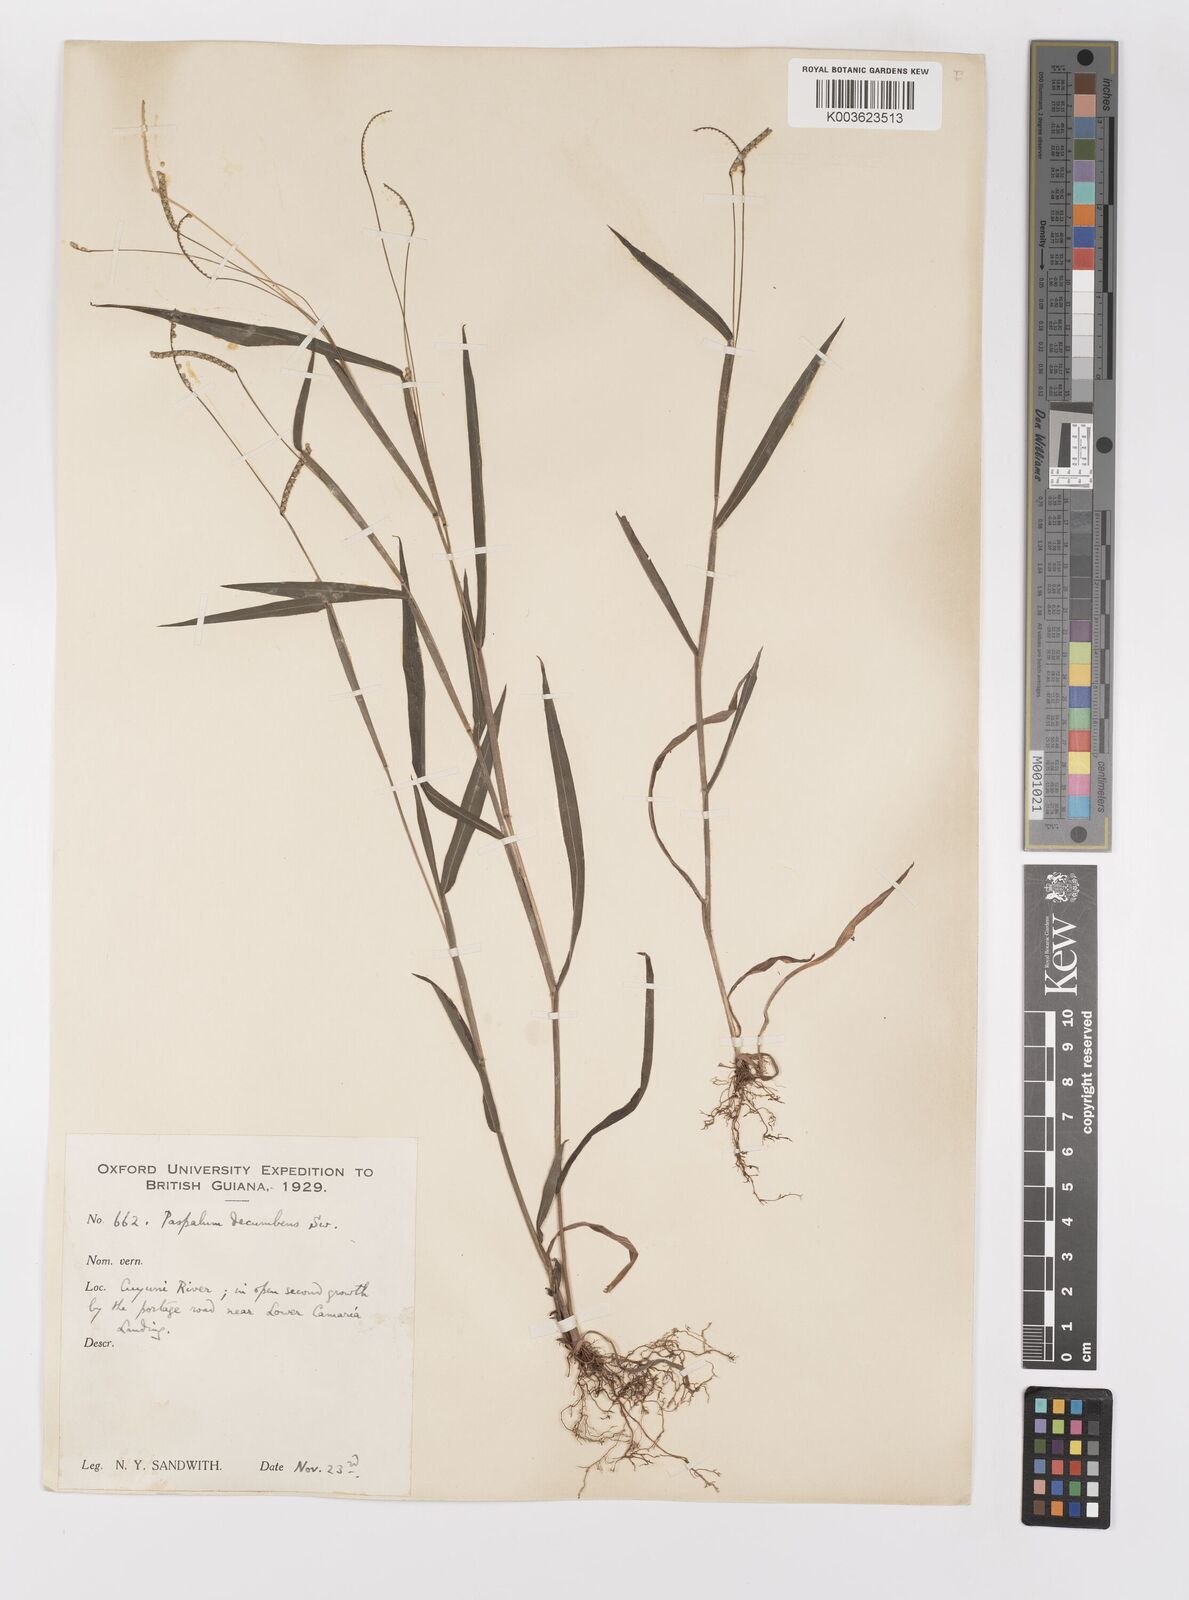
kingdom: Plantae
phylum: Tracheophyta
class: Liliopsida
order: Poales
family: Poaceae
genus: Paspalum
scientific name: Paspalum decumbens
